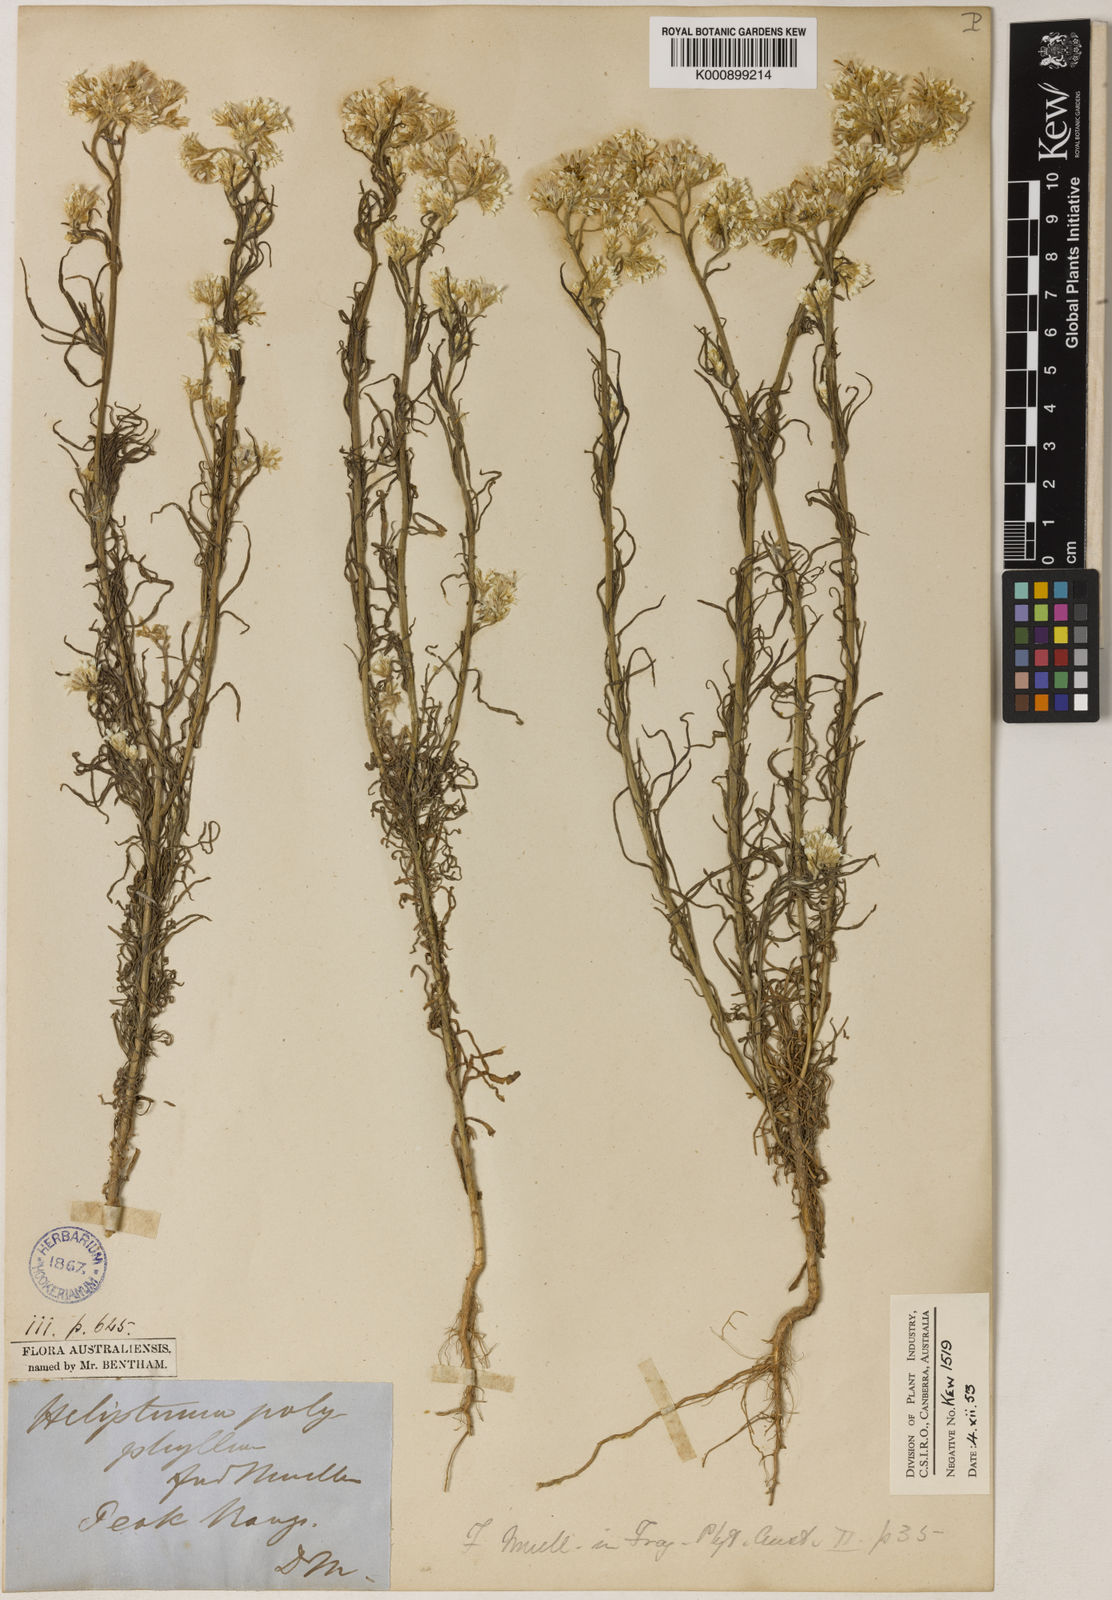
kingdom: Plantae
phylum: Tracheophyta
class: Magnoliopsida
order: Asterales
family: Asteraceae
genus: Rhodanthe
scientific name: Rhodanthe polyphylla
